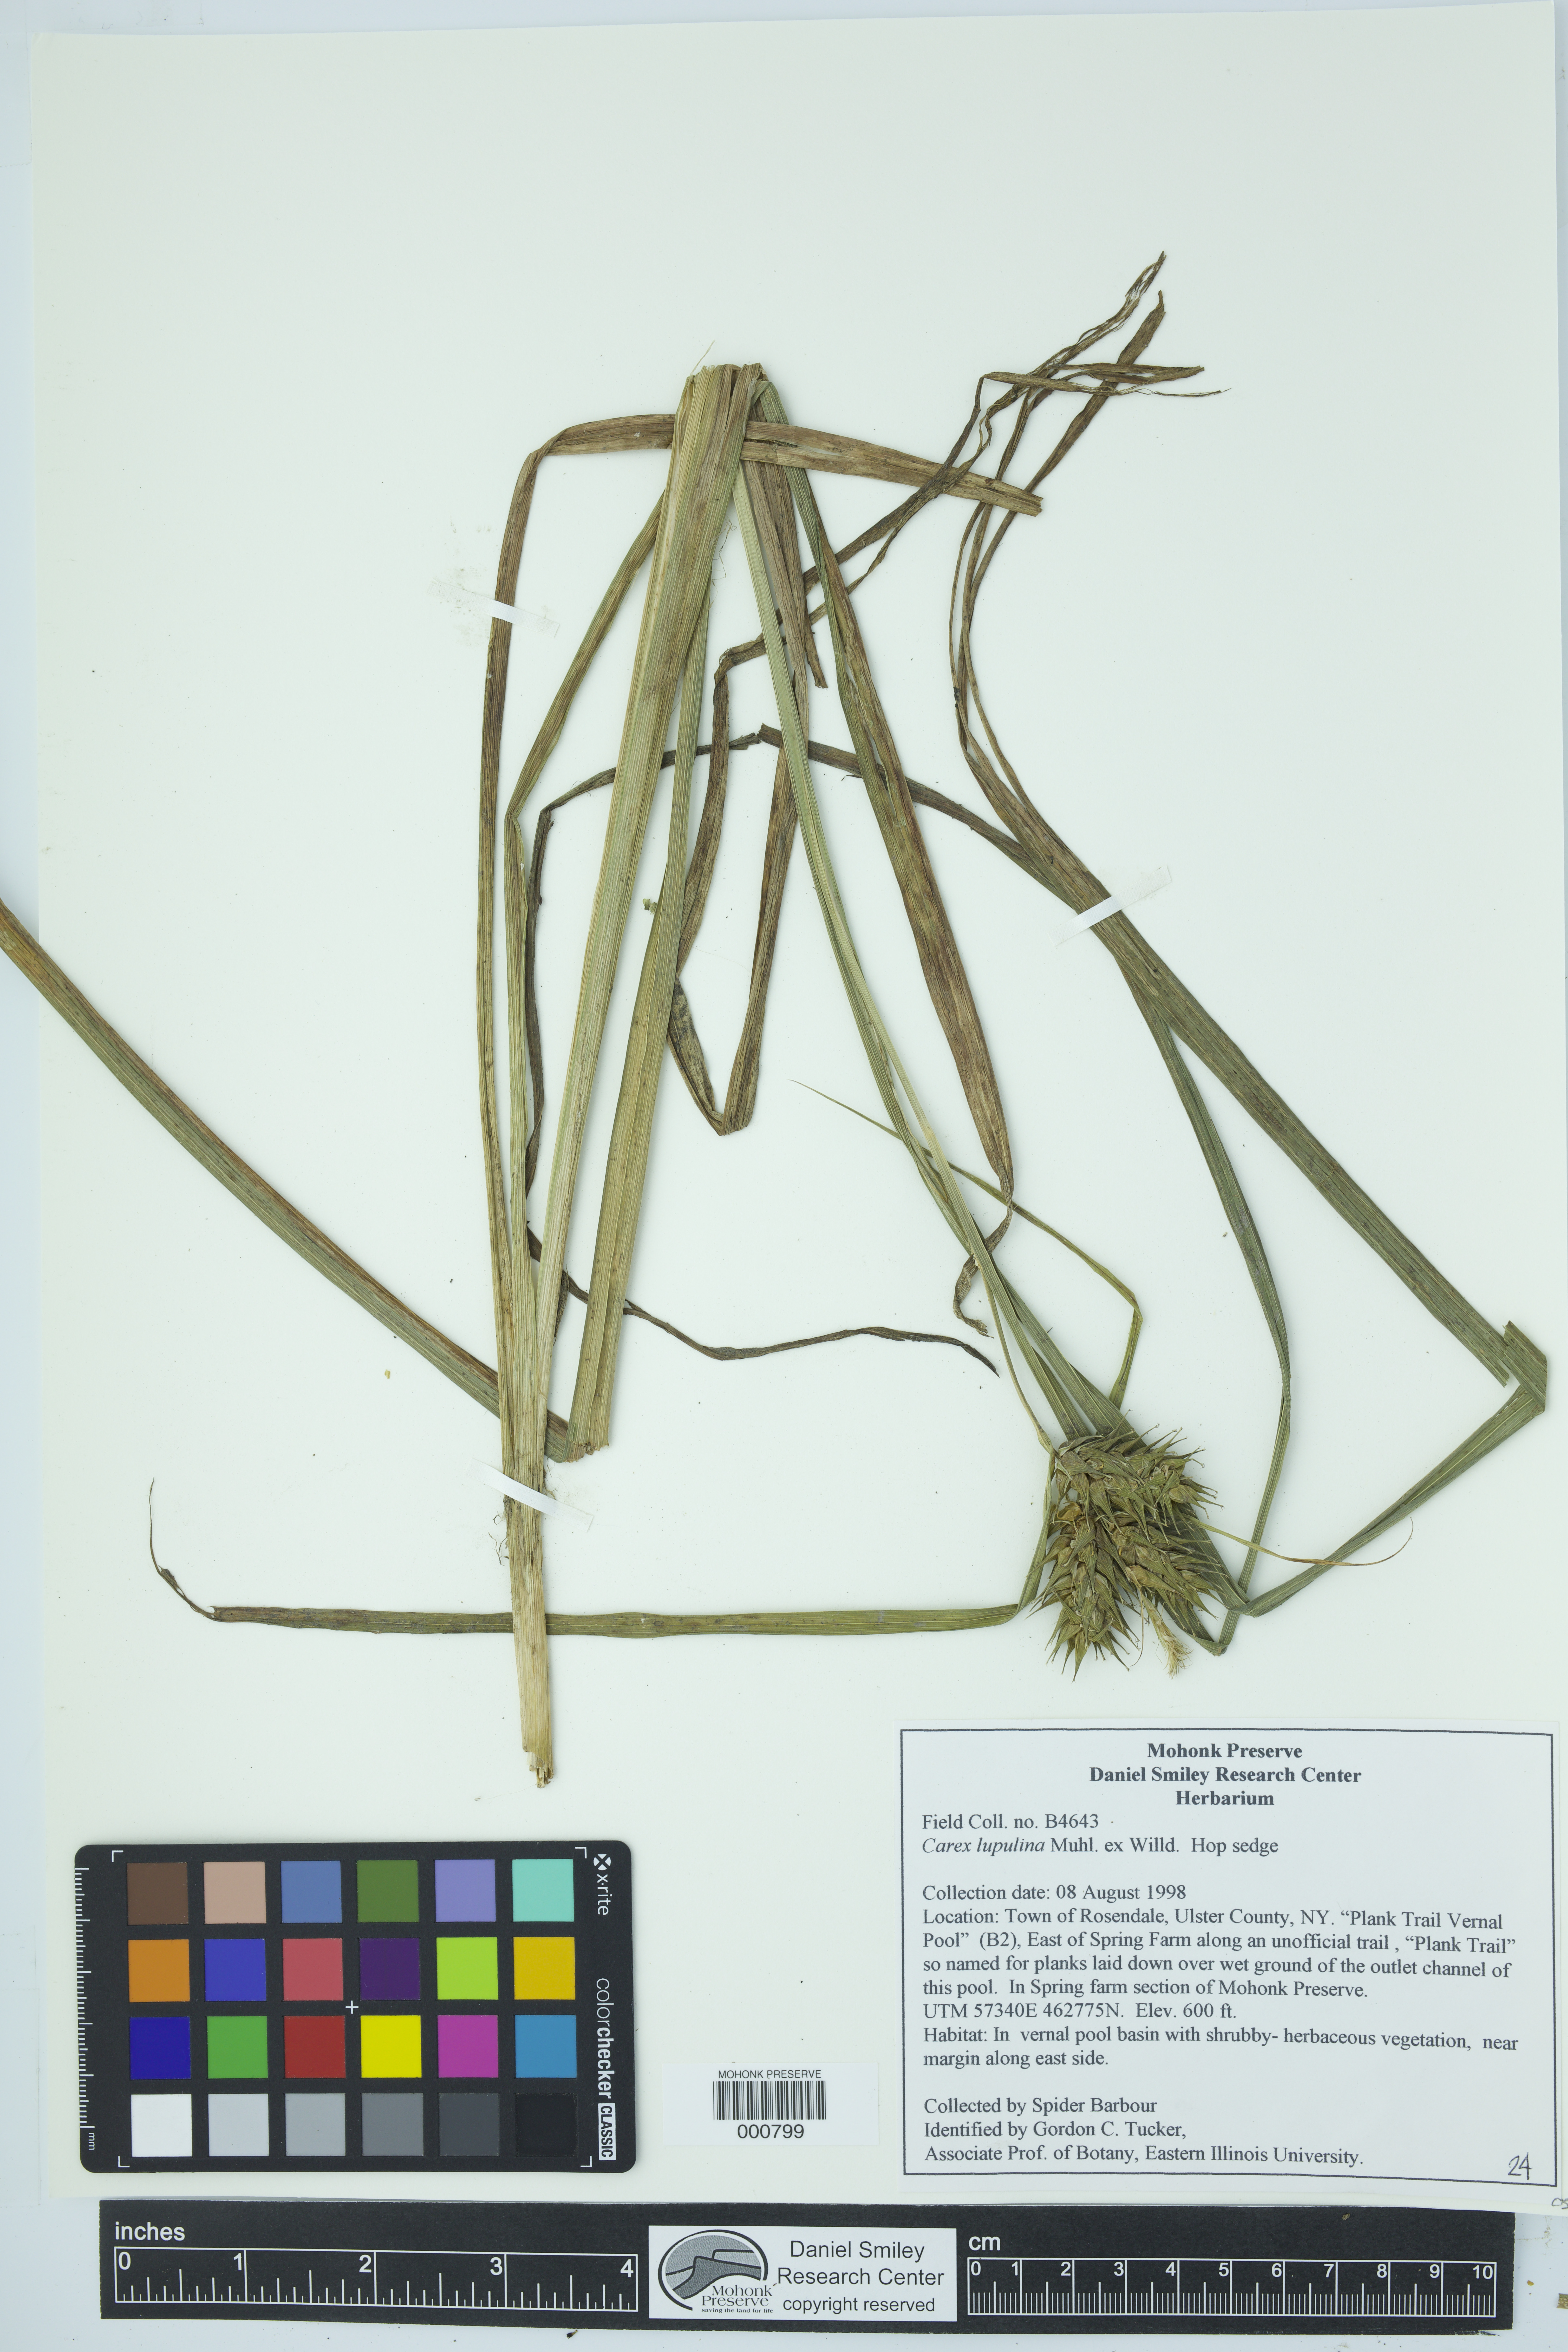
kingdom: Plantae
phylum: Tracheophyta
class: Liliopsida
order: Poales
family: Cyperaceae
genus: Carex
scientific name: Carex lupulina
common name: Hop sedge
